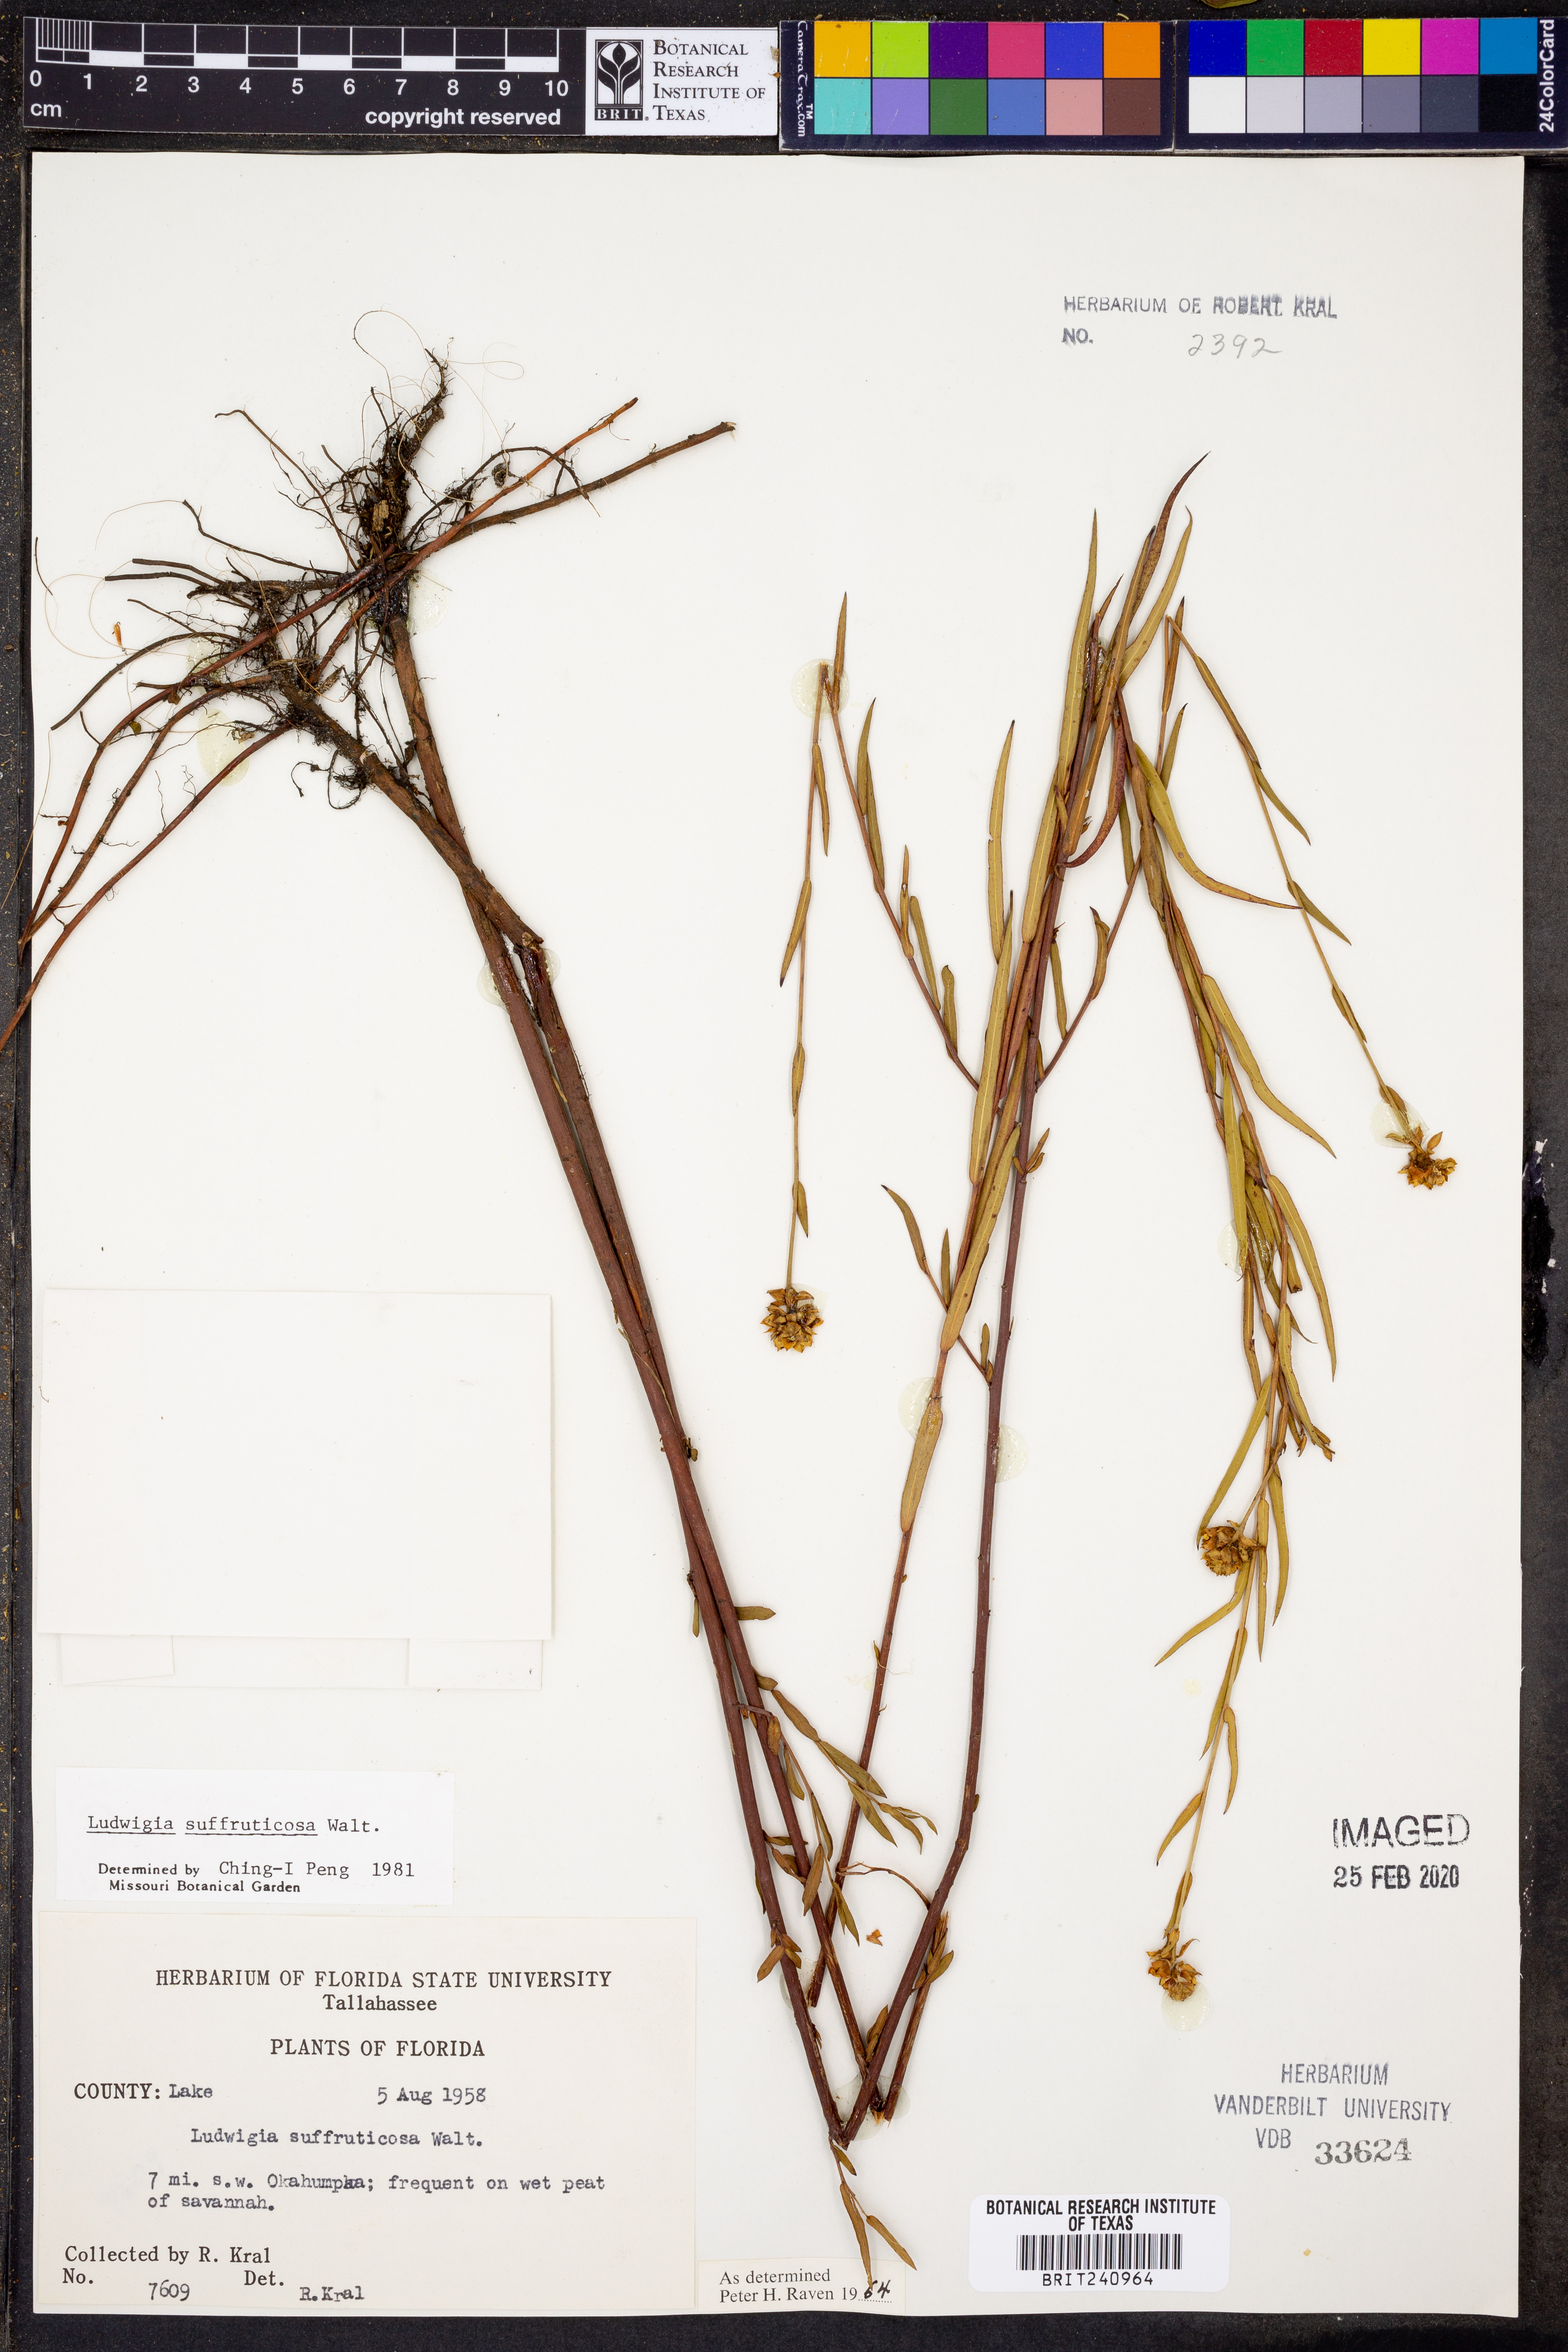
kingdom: Plantae
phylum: Tracheophyta
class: Magnoliopsida
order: Myrtales
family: Onagraceae
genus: Ludwigia
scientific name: Ludwigia suffruticosa
